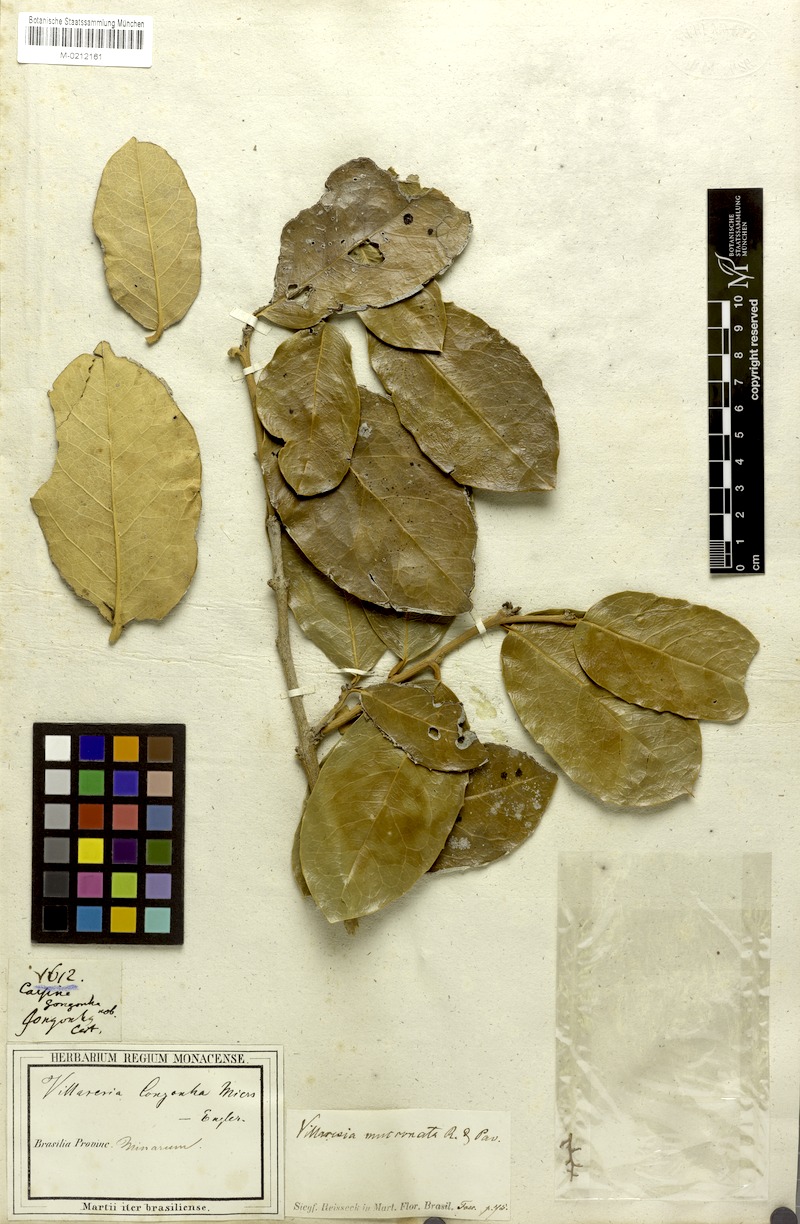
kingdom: Plantae
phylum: Tracheophyta
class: Magnoliopsida
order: Cardiopteridales
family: Cardiopteridaceae
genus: Citronella
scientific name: Citronella mucronata
